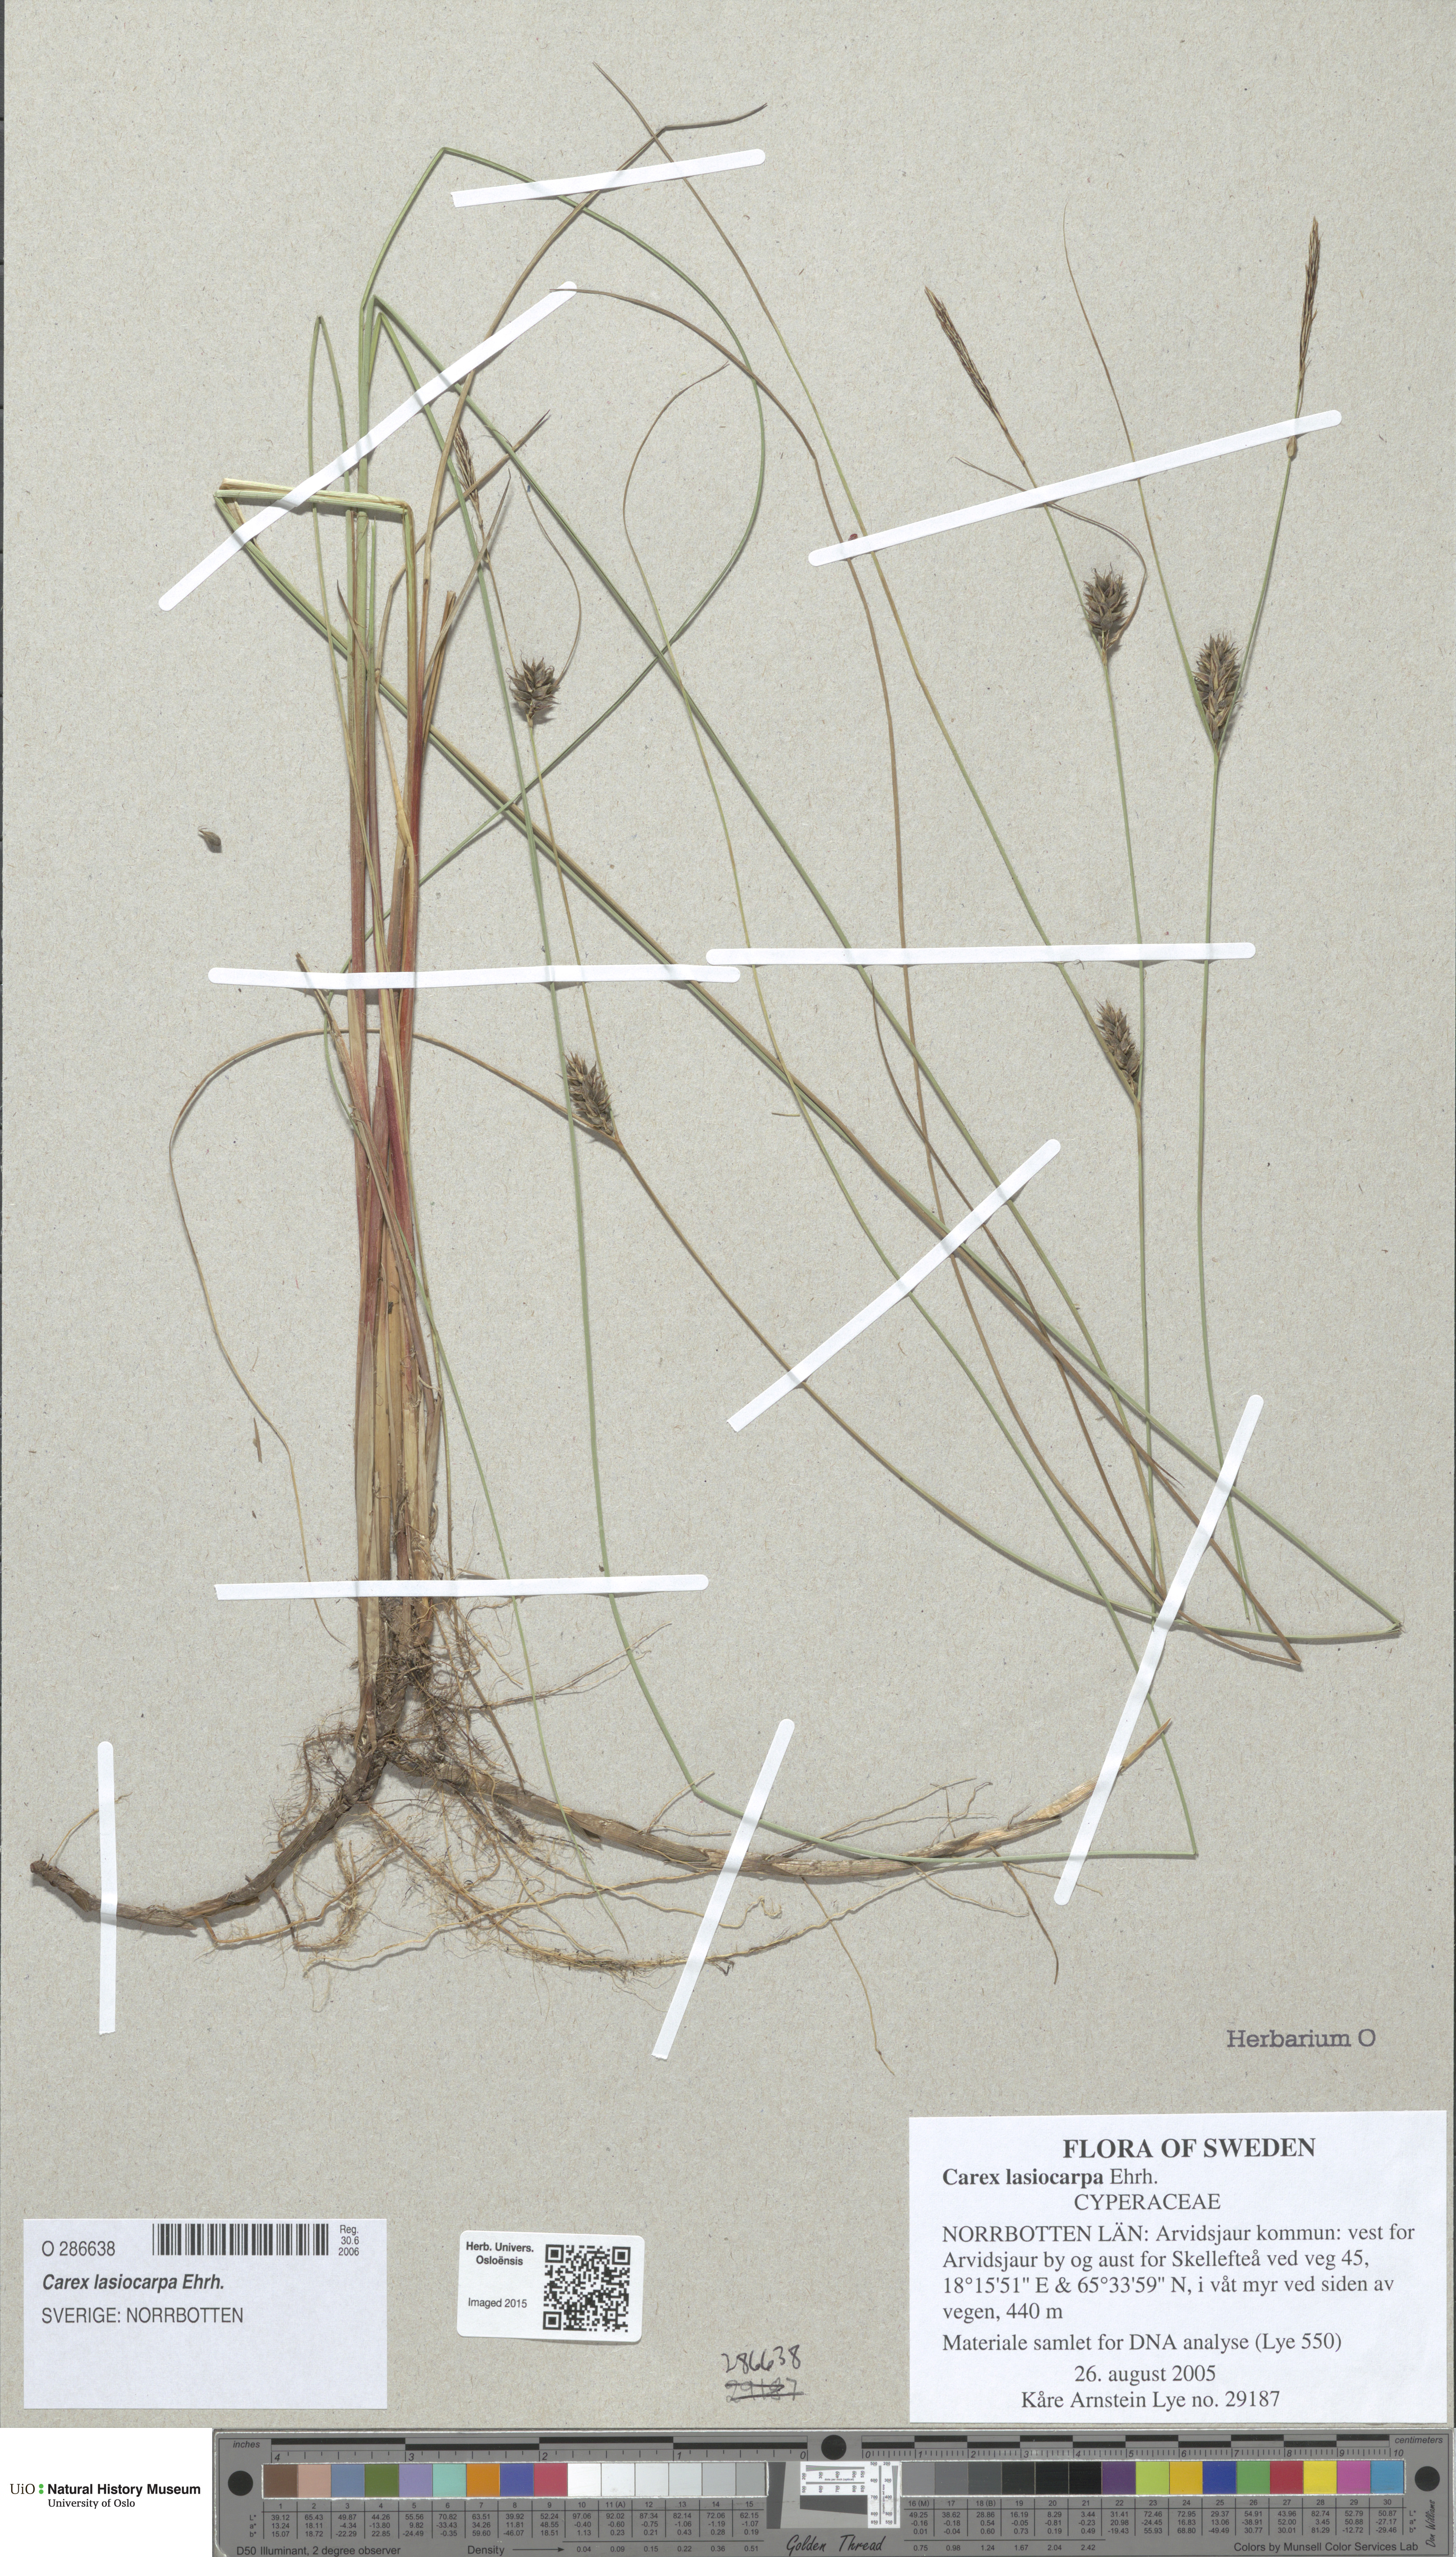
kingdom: Plantae
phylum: Tracheophyta
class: Liliopsida
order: Poales
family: Cyperaceae
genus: Carex
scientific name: Carex lasiocarpa
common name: Slender sedge
